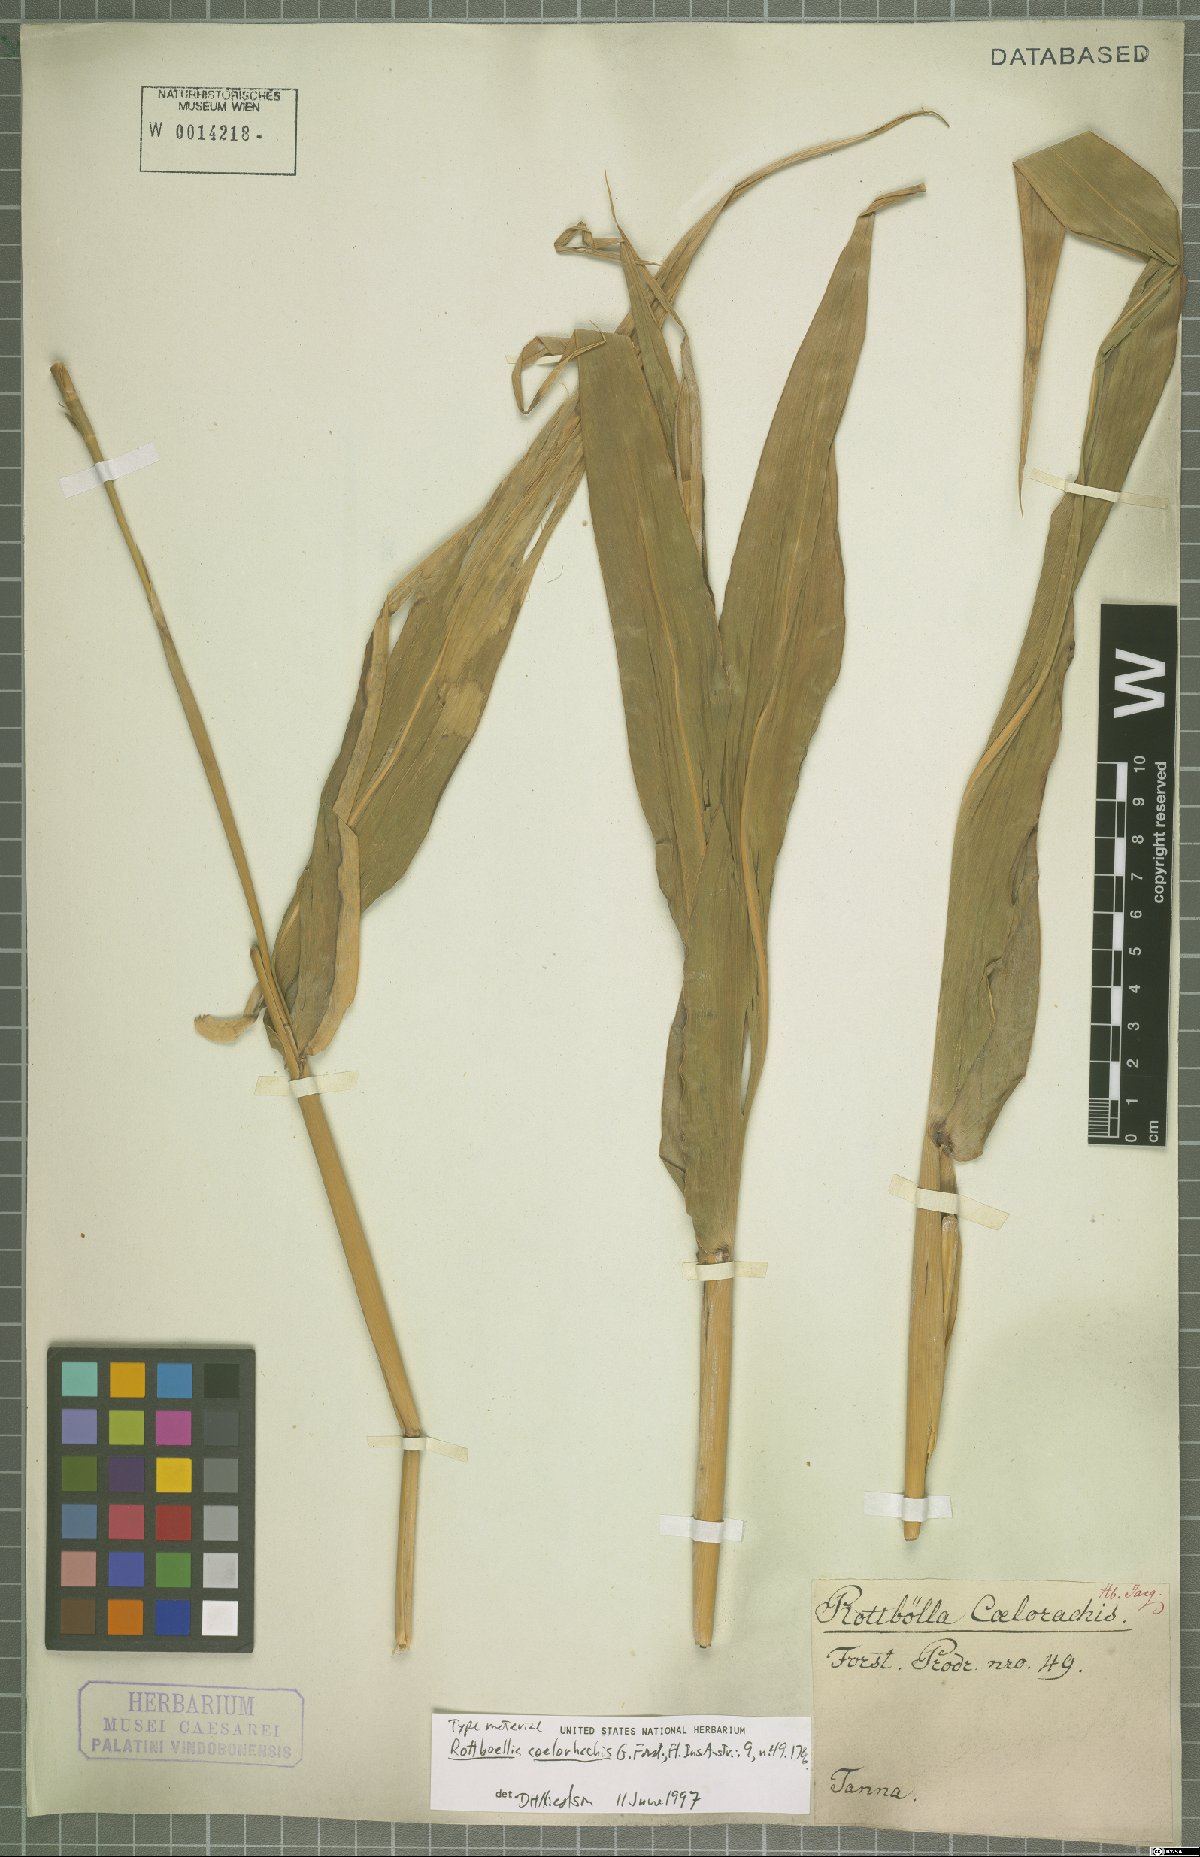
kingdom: Plantae
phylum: Tracheophyta
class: Liliopsida
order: Poales
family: Poaceae
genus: Rottboellia
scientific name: Rottboellia coelorachis
